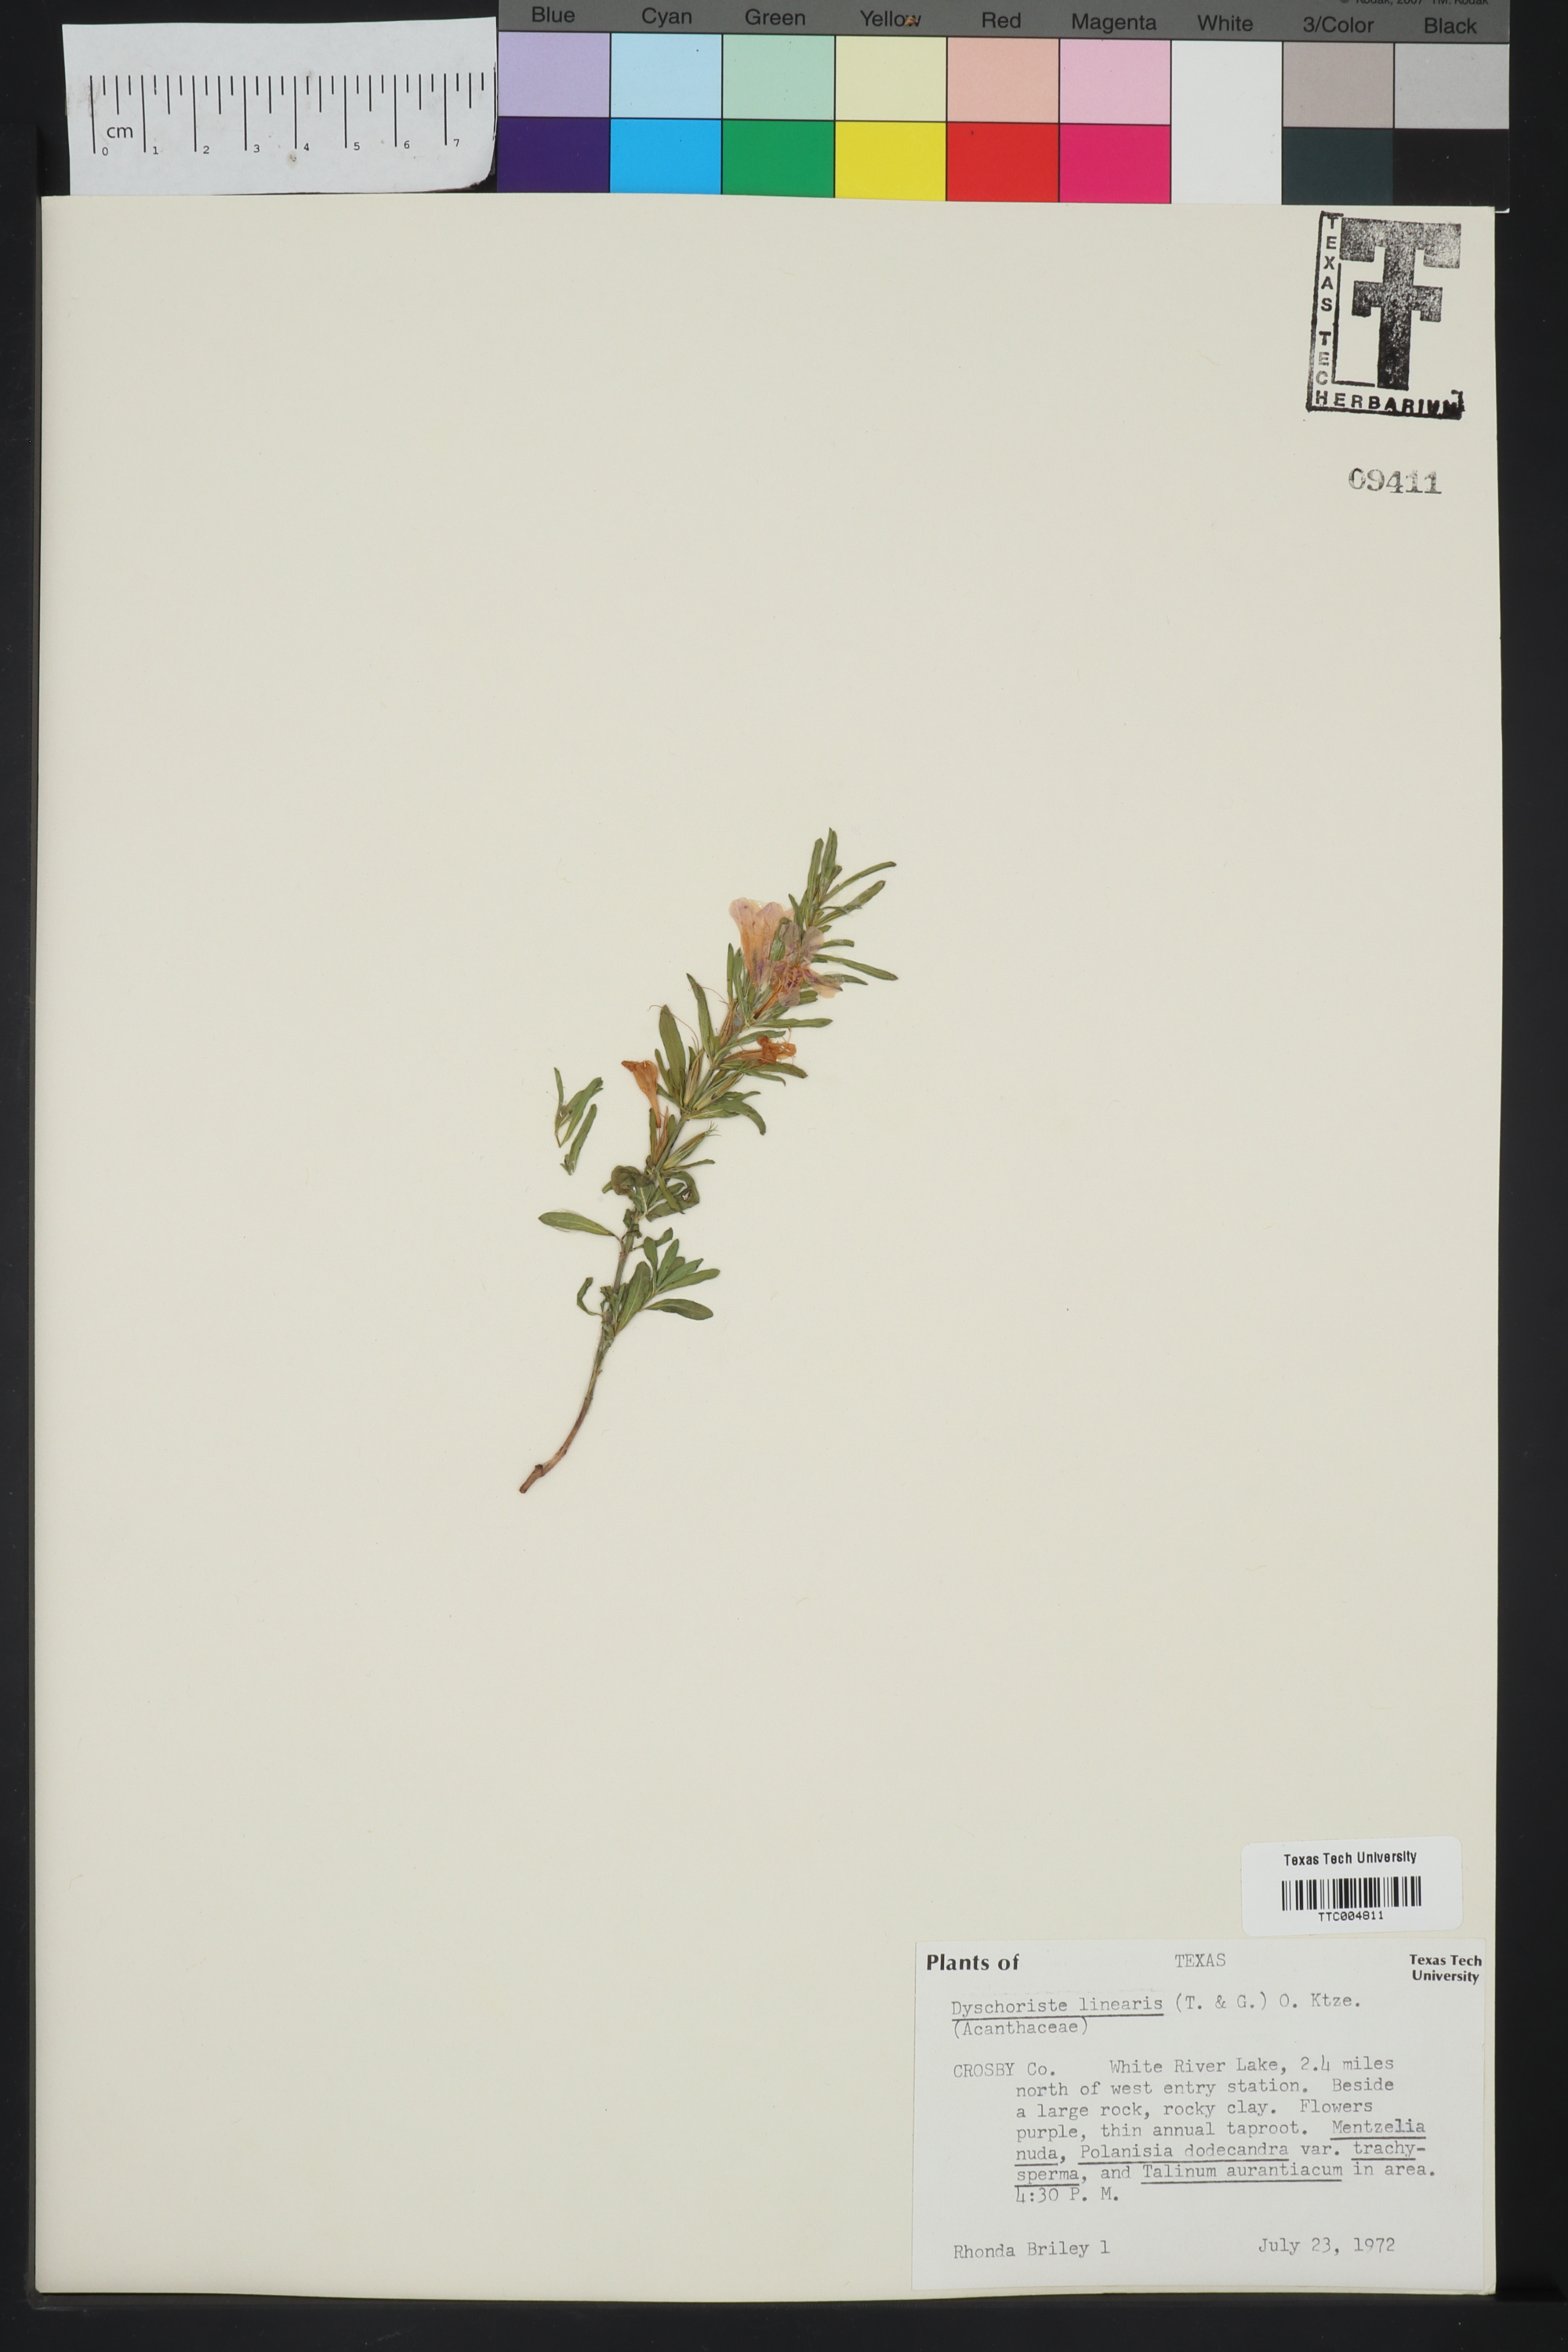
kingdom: Plantae
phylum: Tracheophyta
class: Magnoliopsida
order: Lamiales
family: Acanthaceae
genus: Dyschoriste
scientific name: Dyschoriste linearis
